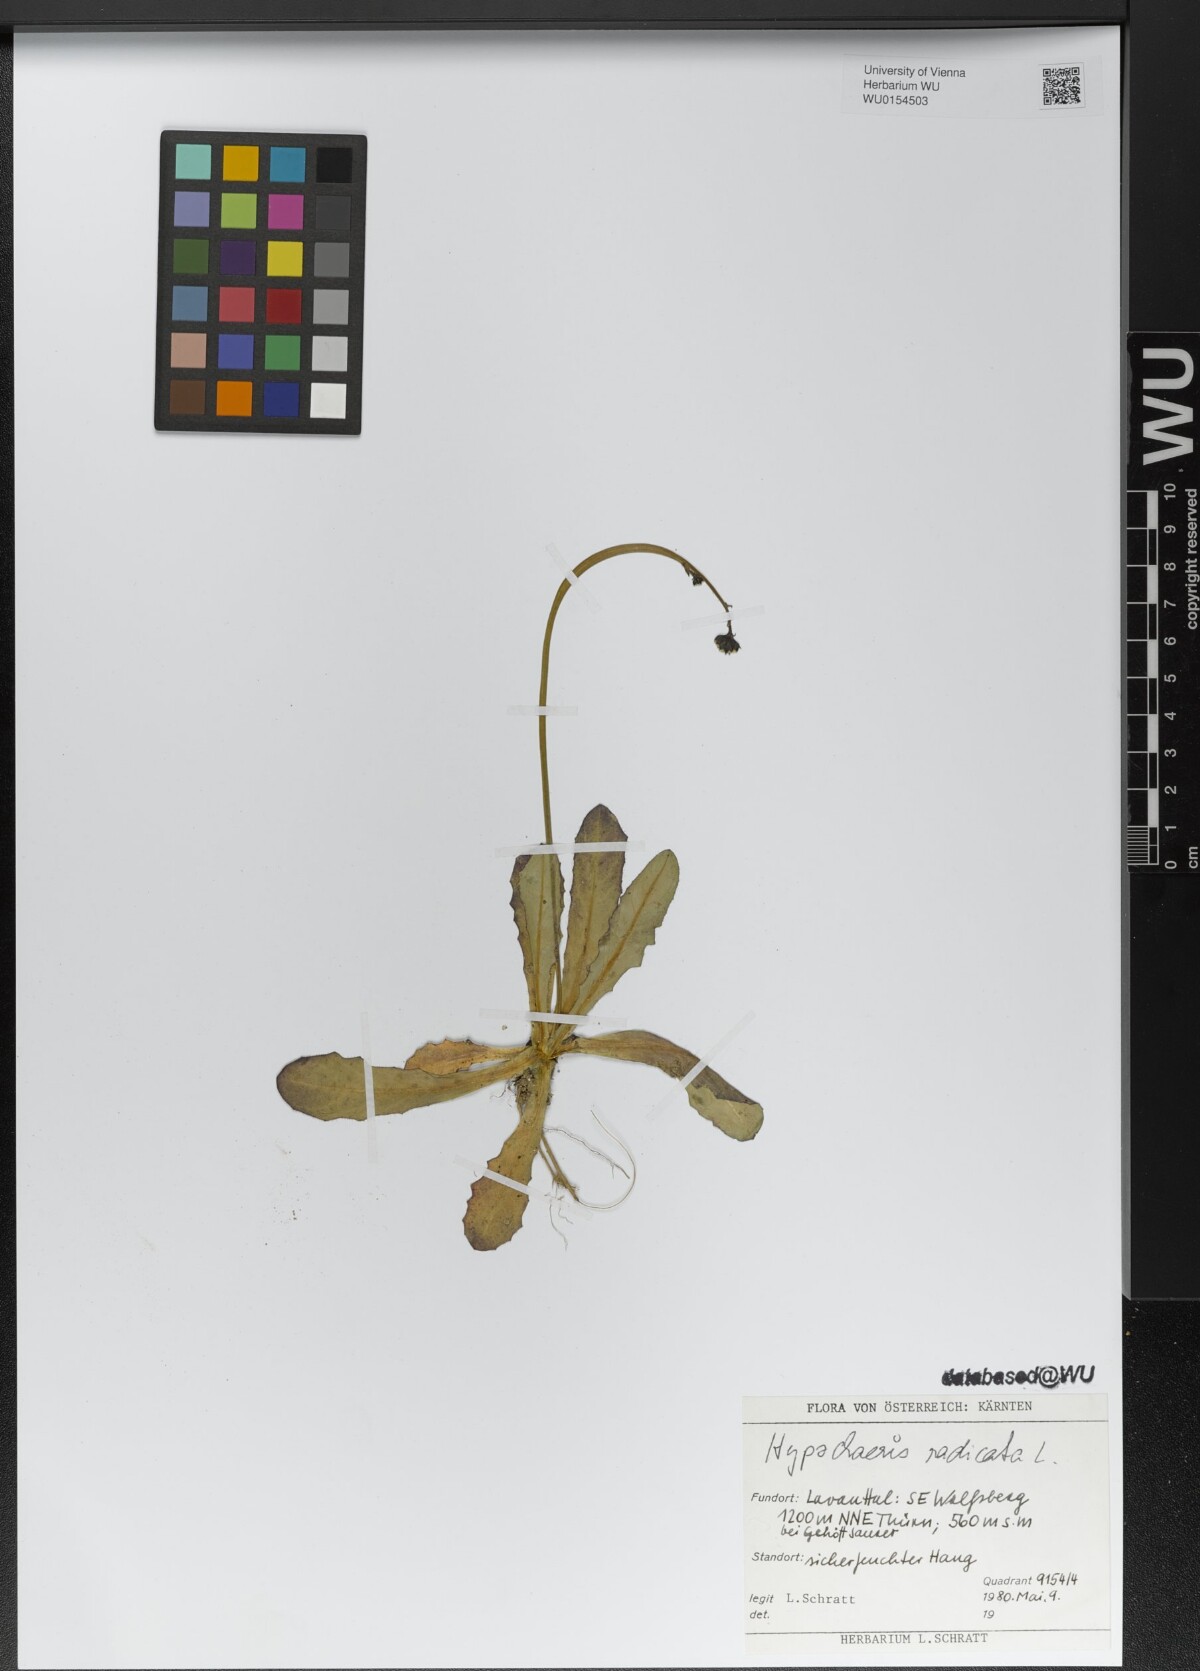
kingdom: Plantae
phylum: Tracheophyta
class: Magnoliopsida
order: Asterales
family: Asteraceae
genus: Hypochaeris
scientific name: Hypochaeris radicata
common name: Flatweed
